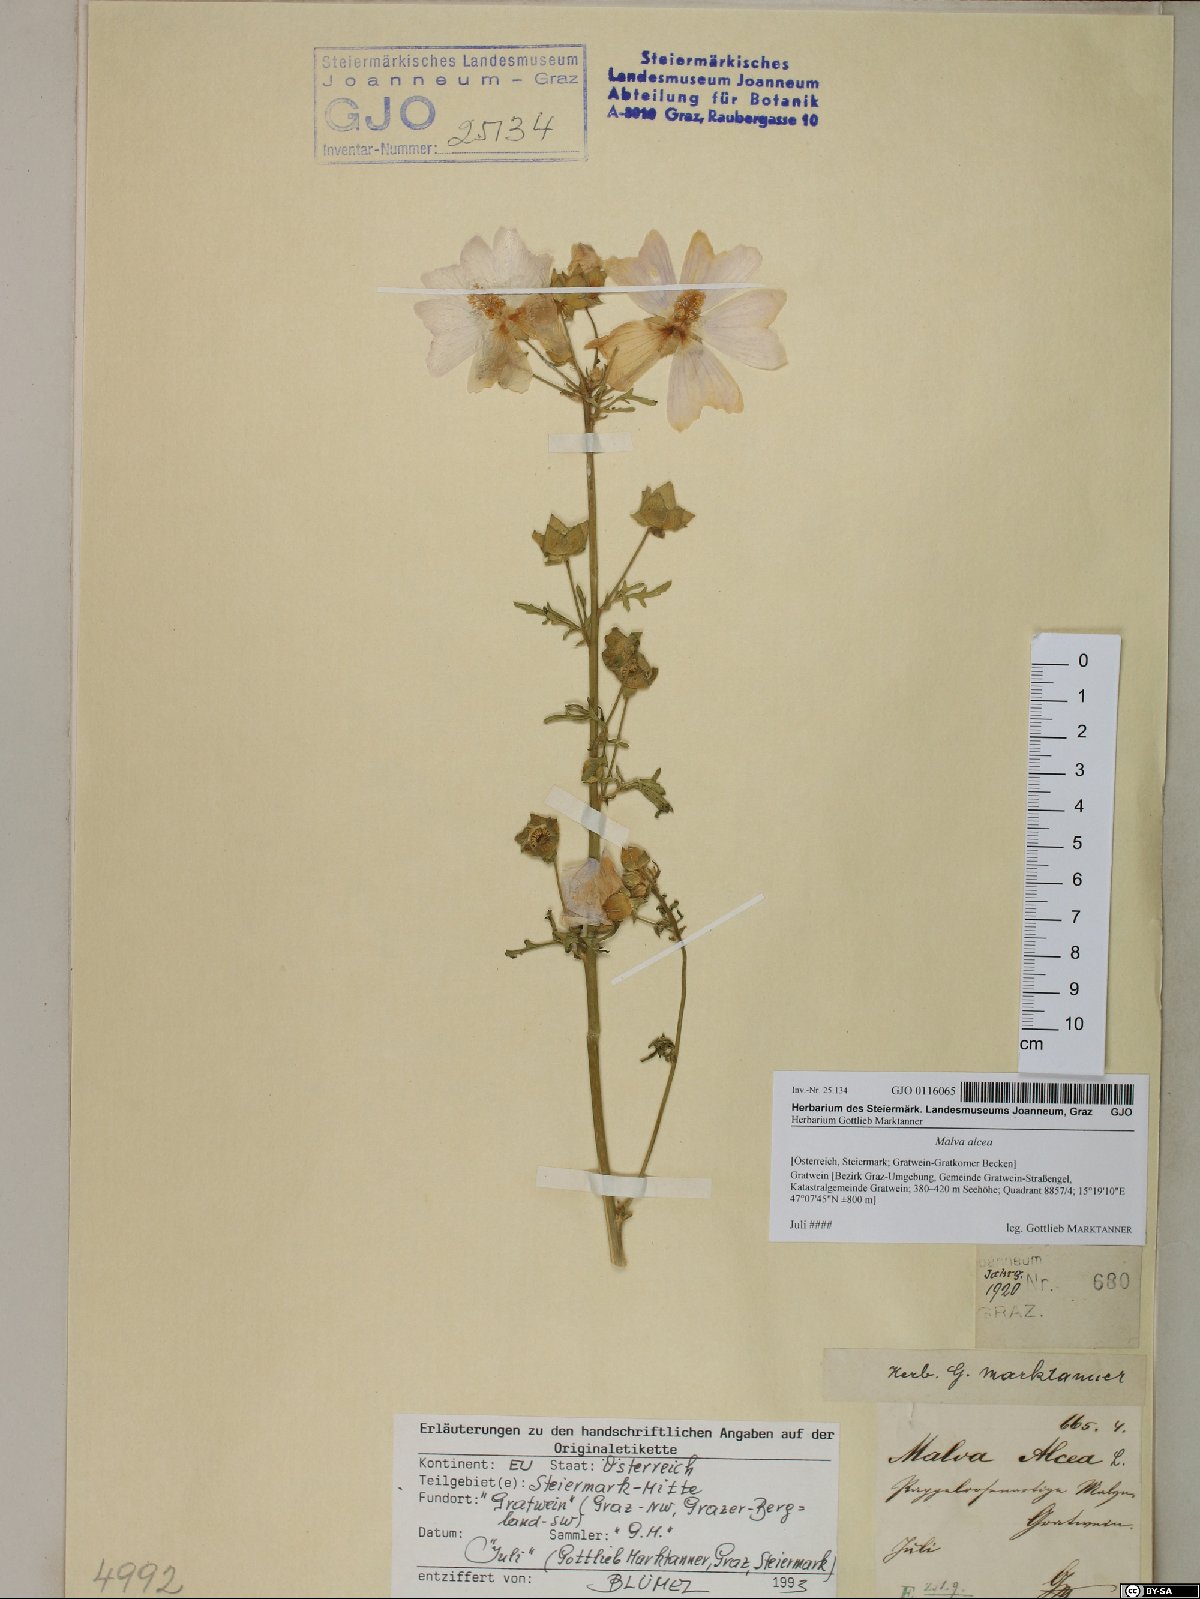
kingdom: Plantae
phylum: Tracheophyta
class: Magnoliopsida
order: Malvales
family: Malvaceae
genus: Malva
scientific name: Malva alcea
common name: Greater musk-mallow
